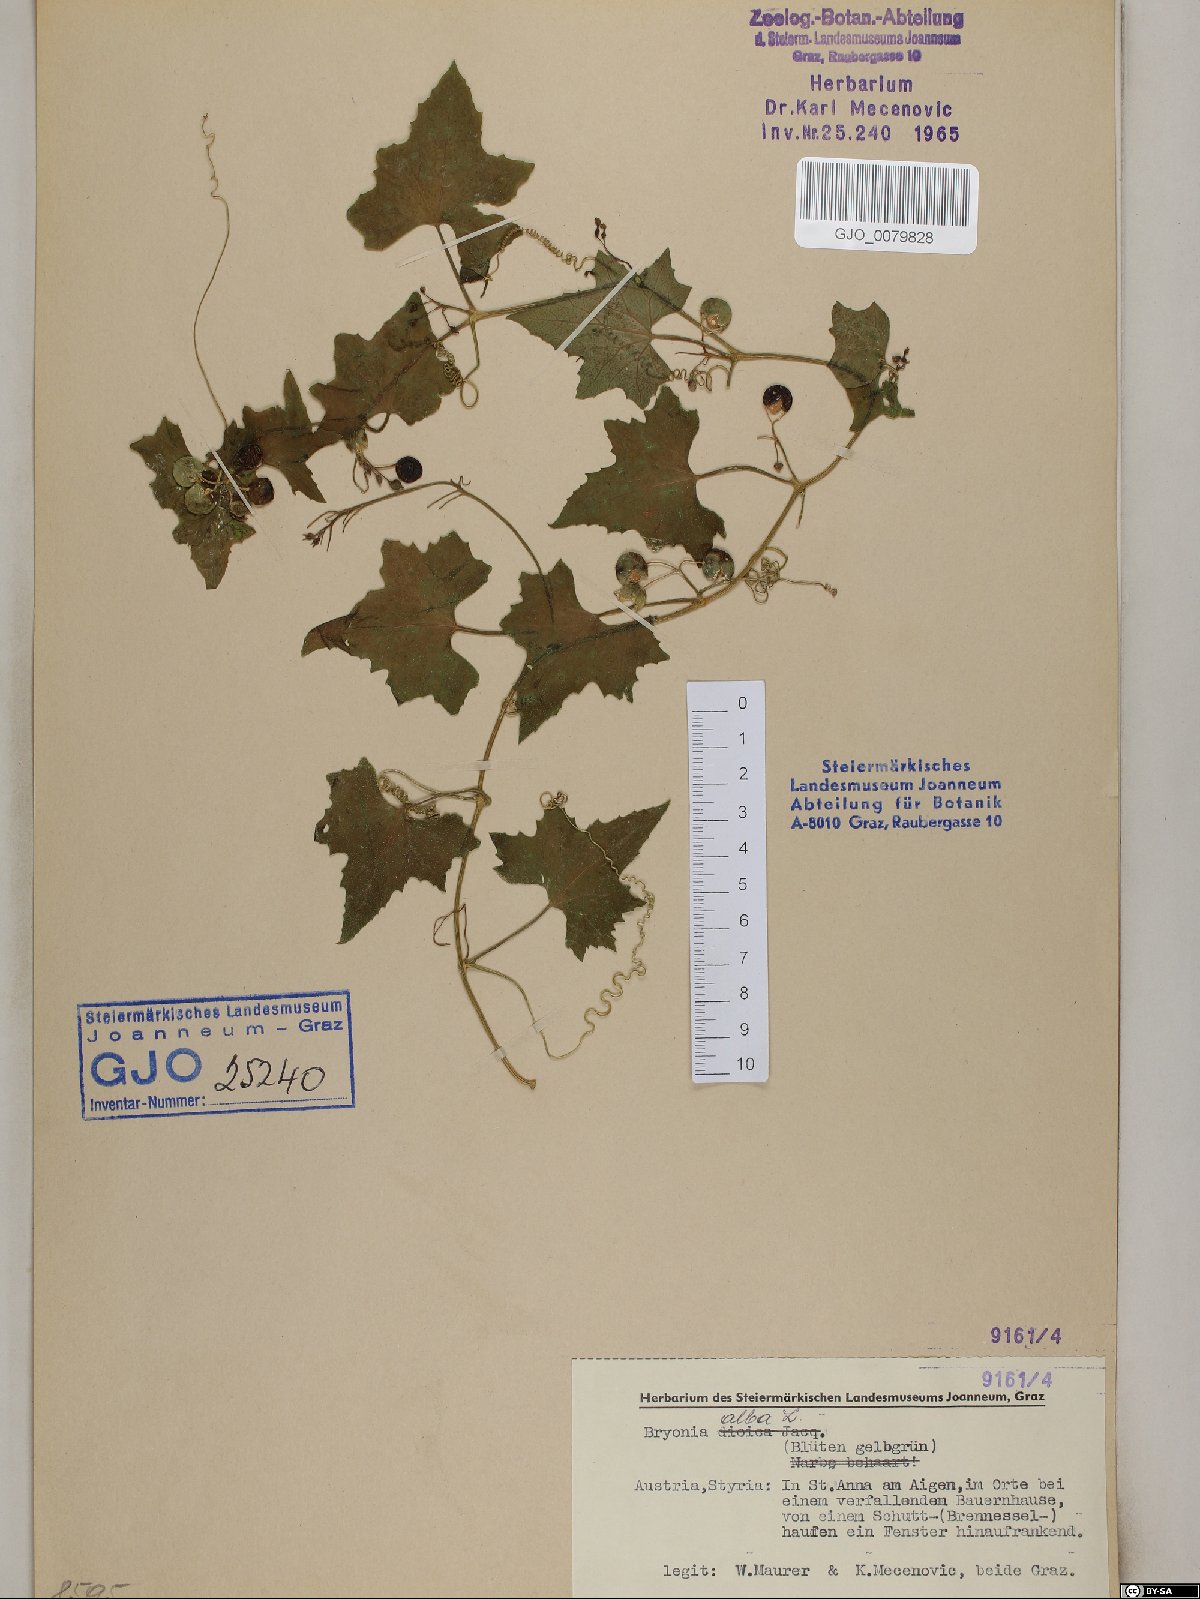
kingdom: Plantae
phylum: Tracheophyta
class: Magnoliopsida
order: Cucurbitales
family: Cucurbitaceae
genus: Bryonia
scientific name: Bryonia alba
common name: White bryony
